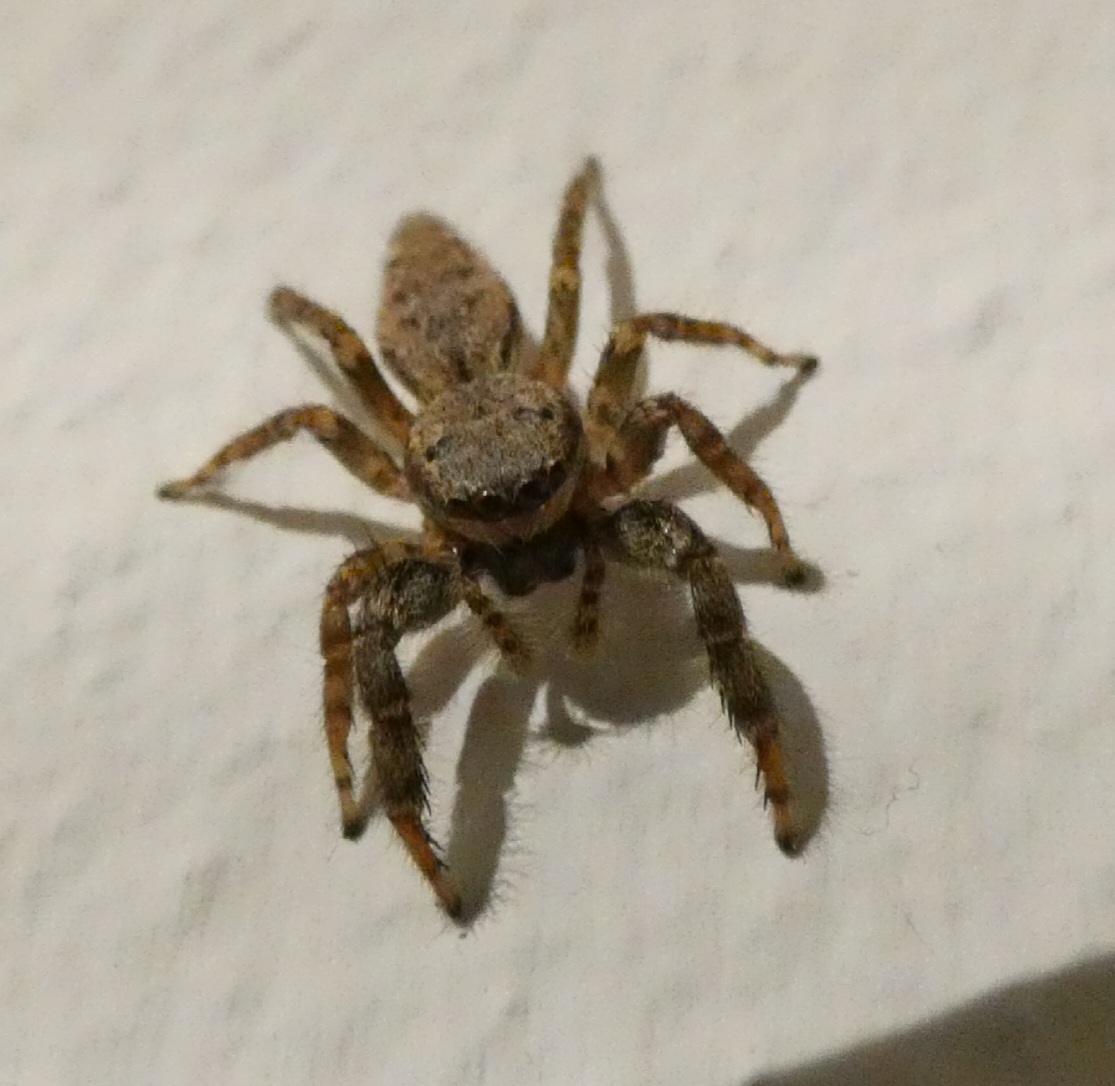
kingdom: Animalia
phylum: Arthropoda
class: Arachnida
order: Araneae
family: Salticidae
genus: Marpissa
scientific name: Marpissa muscosa
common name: Stor springedderkop
